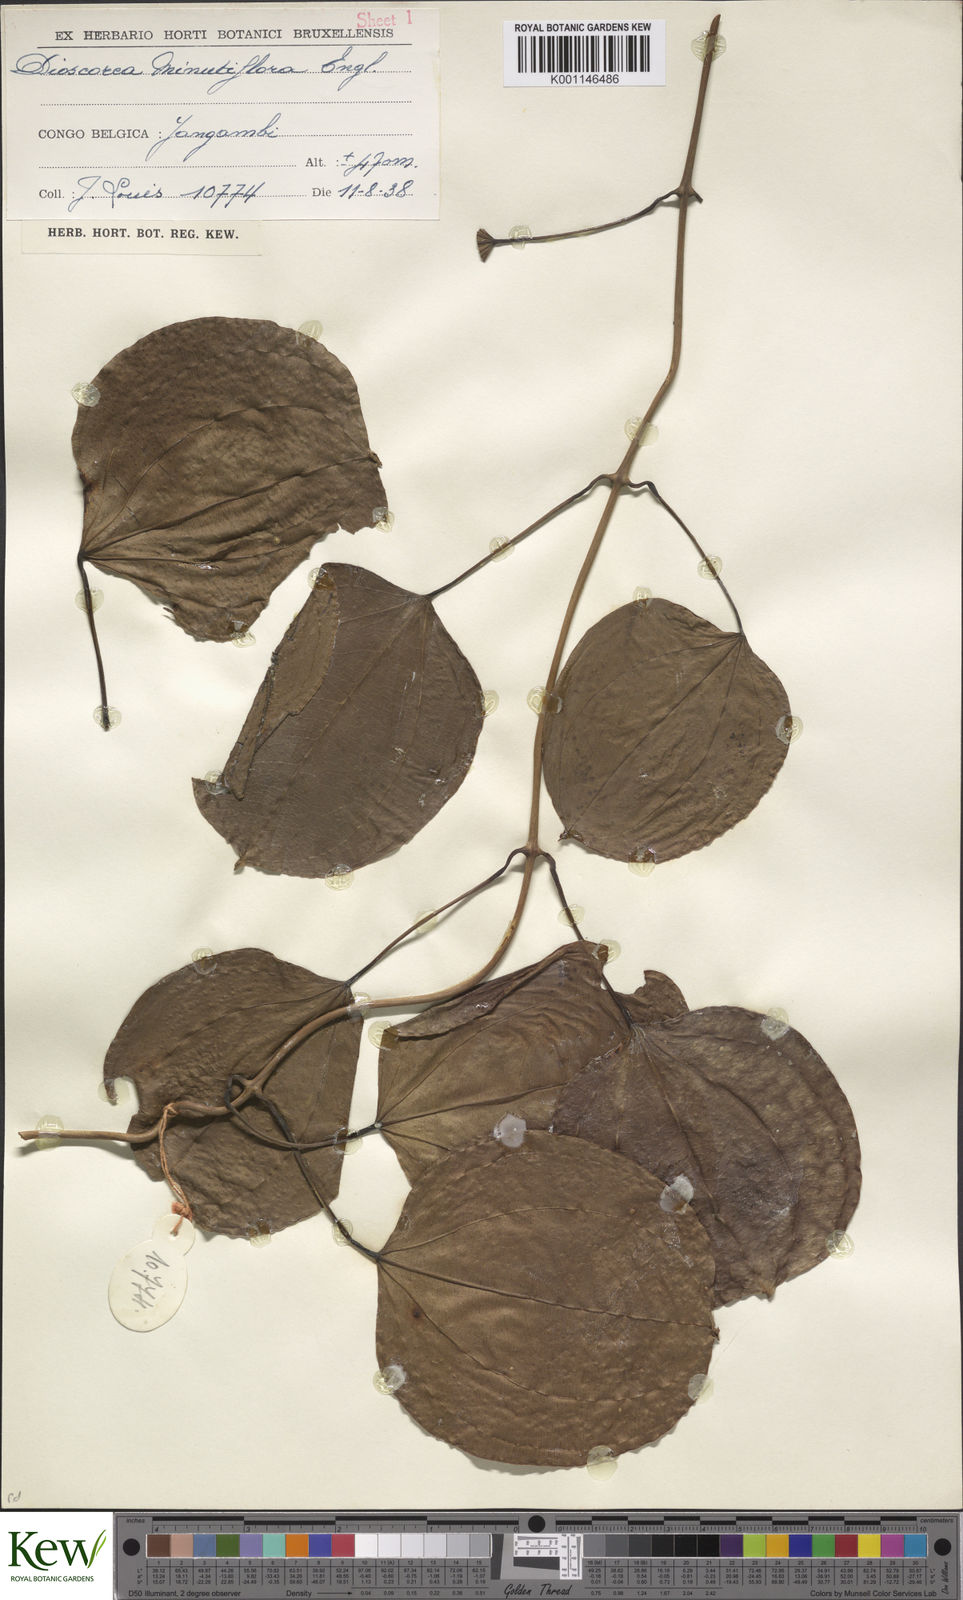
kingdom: Plantae
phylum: Tracheophyta
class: Liliopsida
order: Dioscoreales
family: Dioscoreaceae
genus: Dioscorea
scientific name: Dioscorea minutiflora
